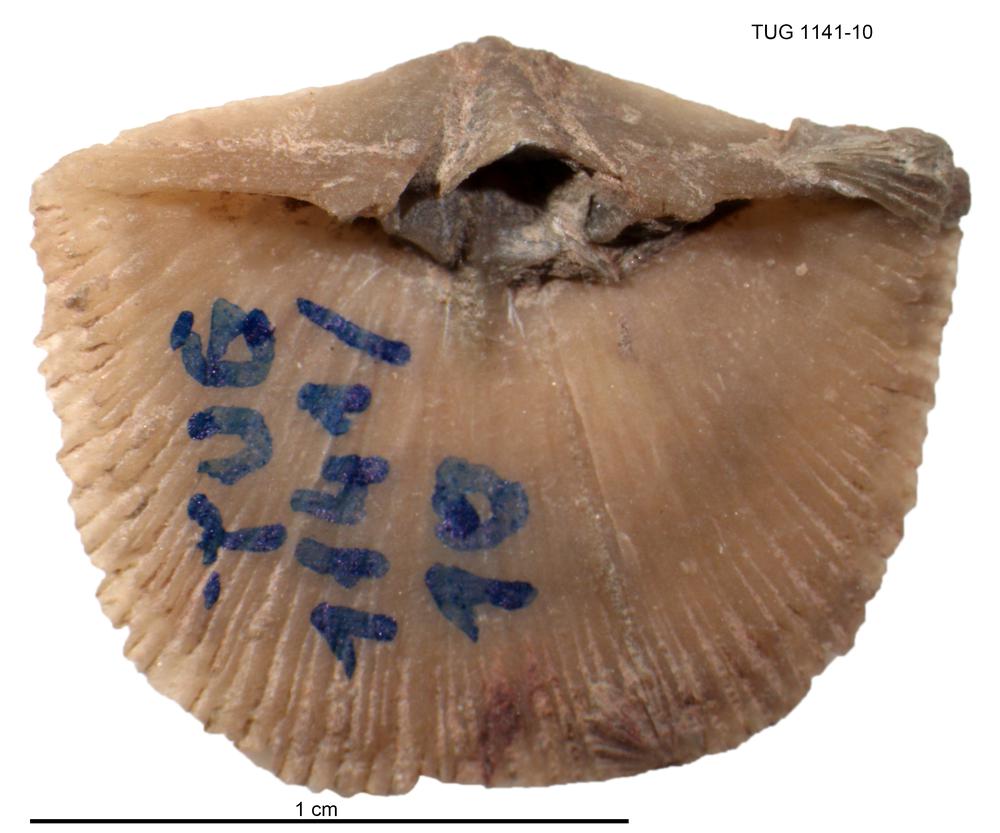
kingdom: Animalia
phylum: Brachiopoda
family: Gonambonitidae
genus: Gonambonites
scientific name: Gonambonites plana
